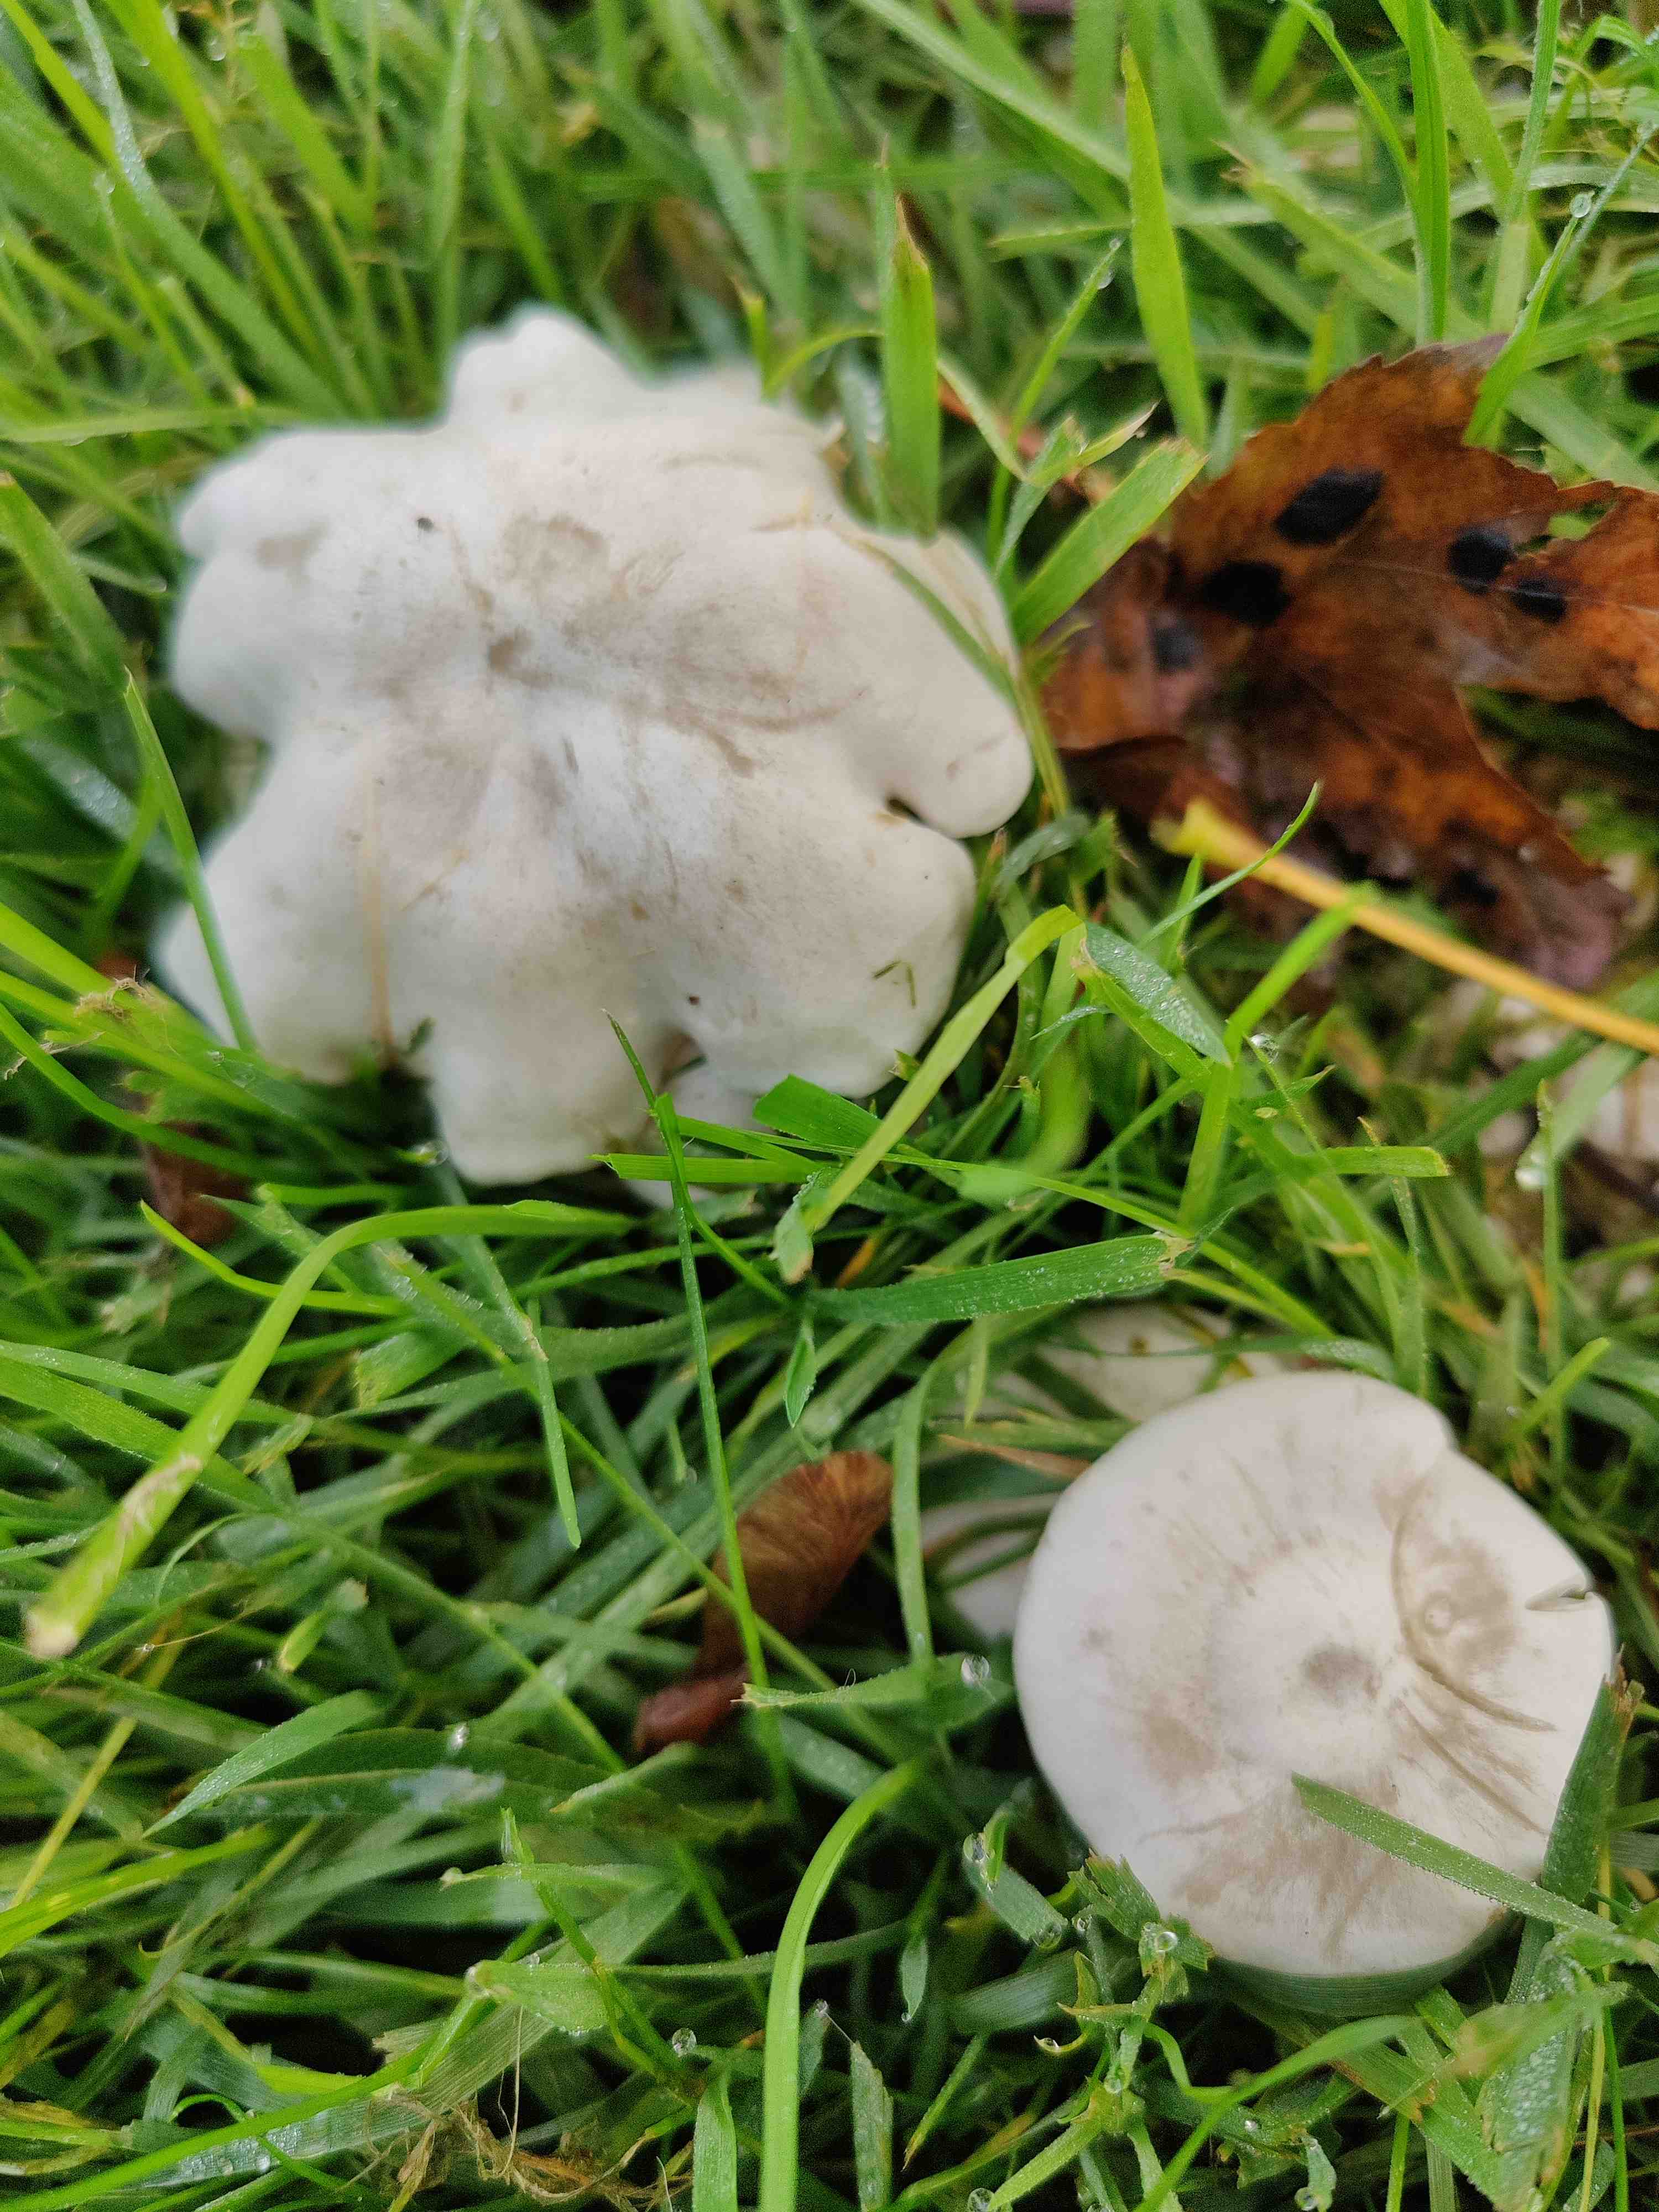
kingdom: Fungi
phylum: Basidiomycota
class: Agaricomycetes
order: Agaricales
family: Tricholomataceae
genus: Leucocybe
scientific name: Leucocybe connata
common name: knippe-tragthat
